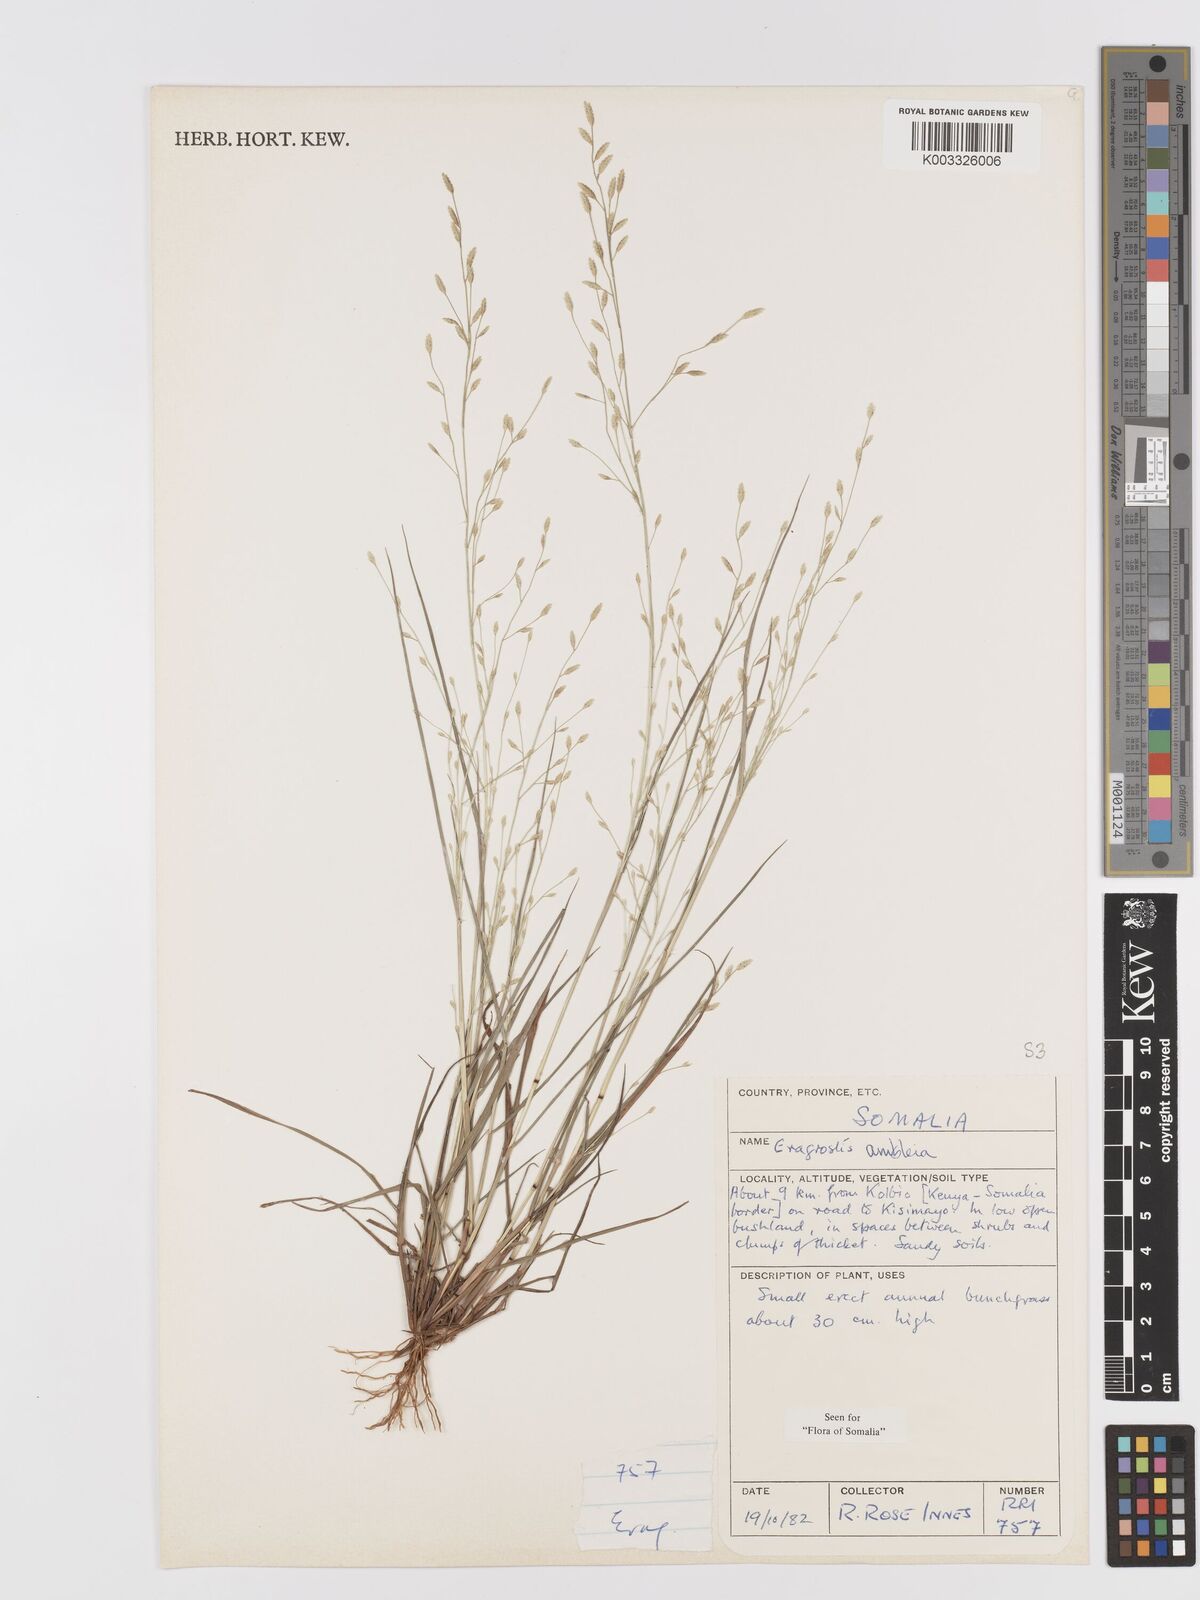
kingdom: Plantae
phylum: Tracheophyta
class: Liliopsida
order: Poales
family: Poaceae
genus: Eragrostis
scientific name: Eragrostis ambleia
